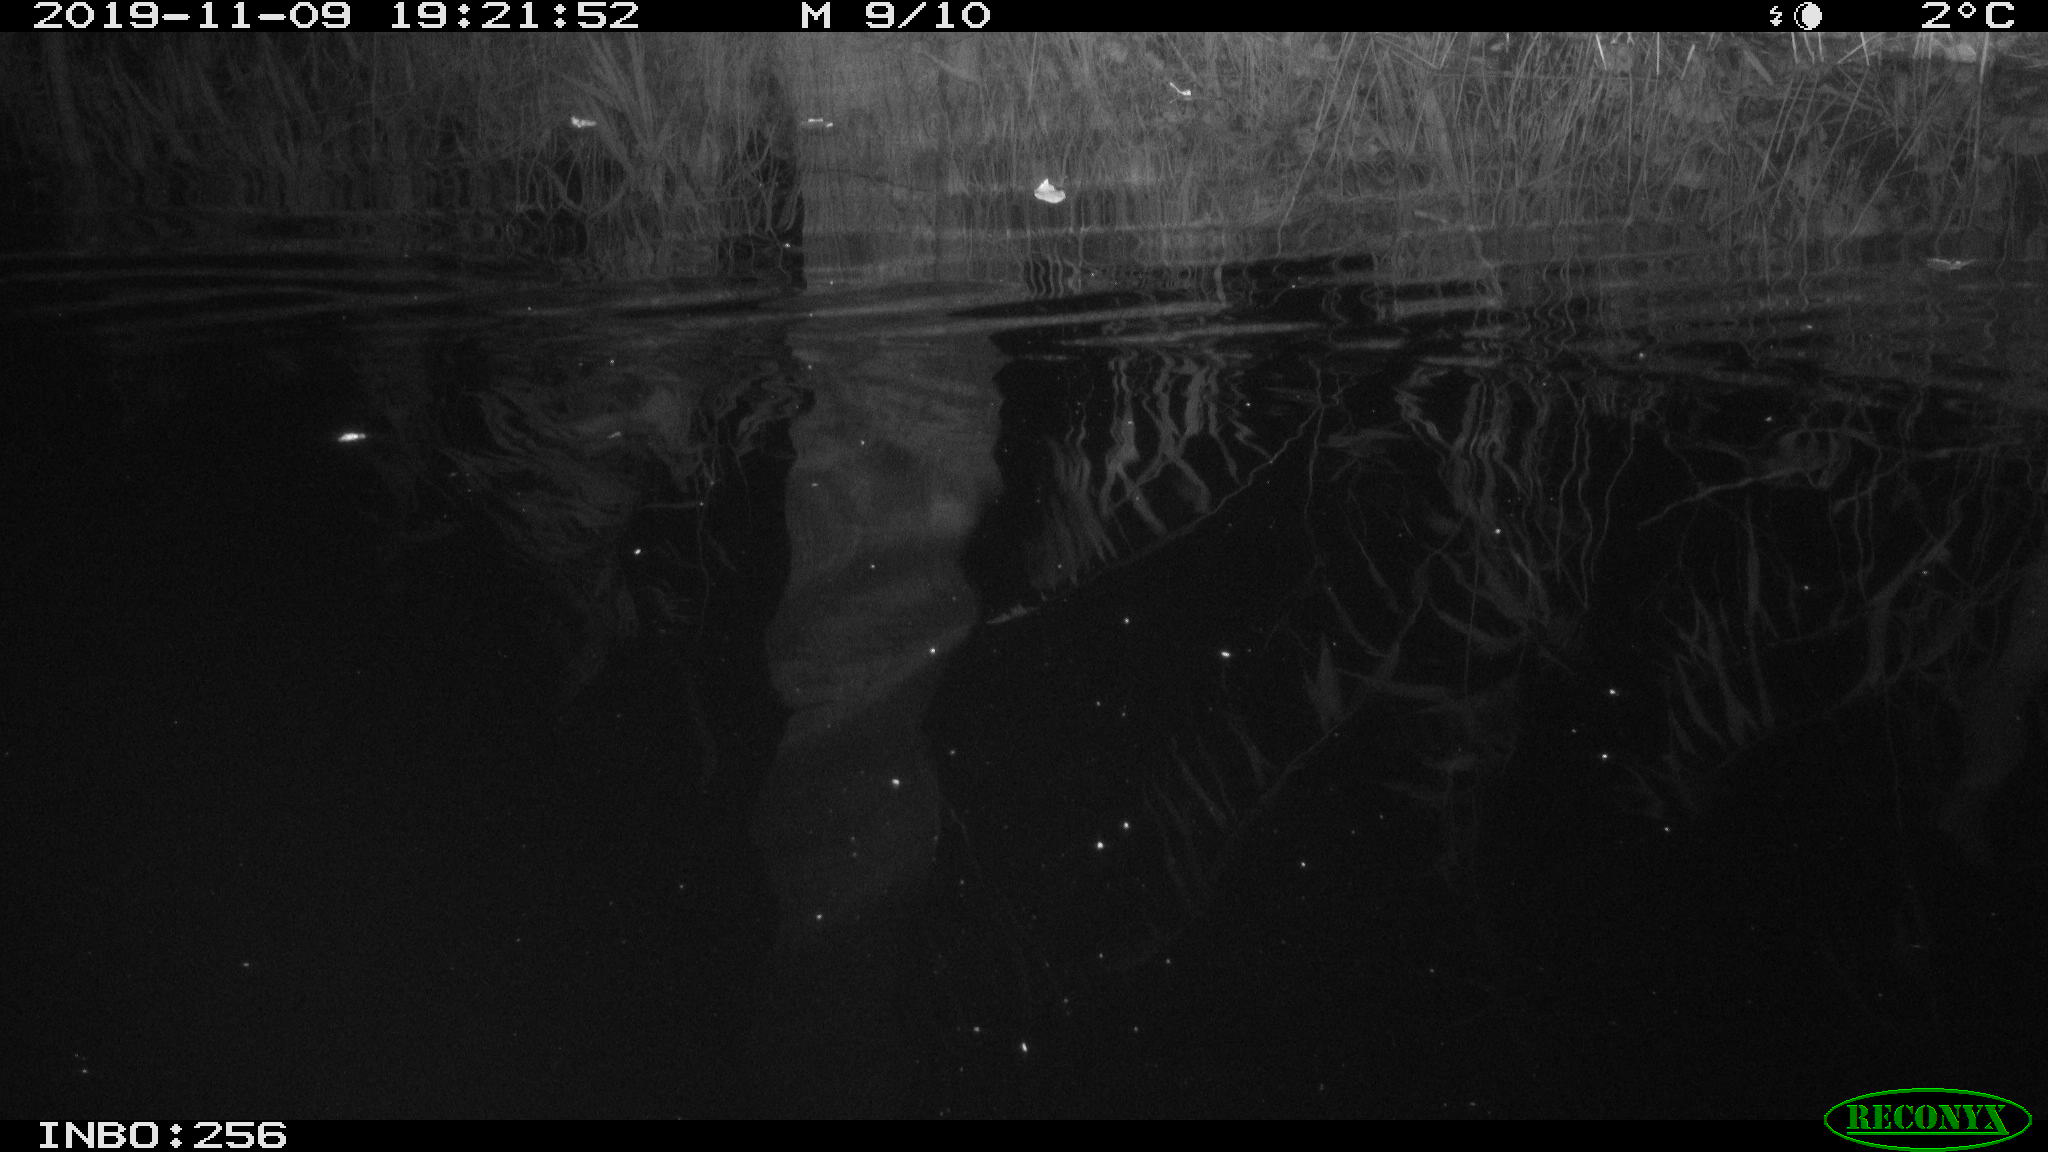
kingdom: Animalia
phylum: Chordata
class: Mammalia
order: Rodentia
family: Muridae
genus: Rattus
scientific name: Rattus norvegicus
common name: Brown rat
